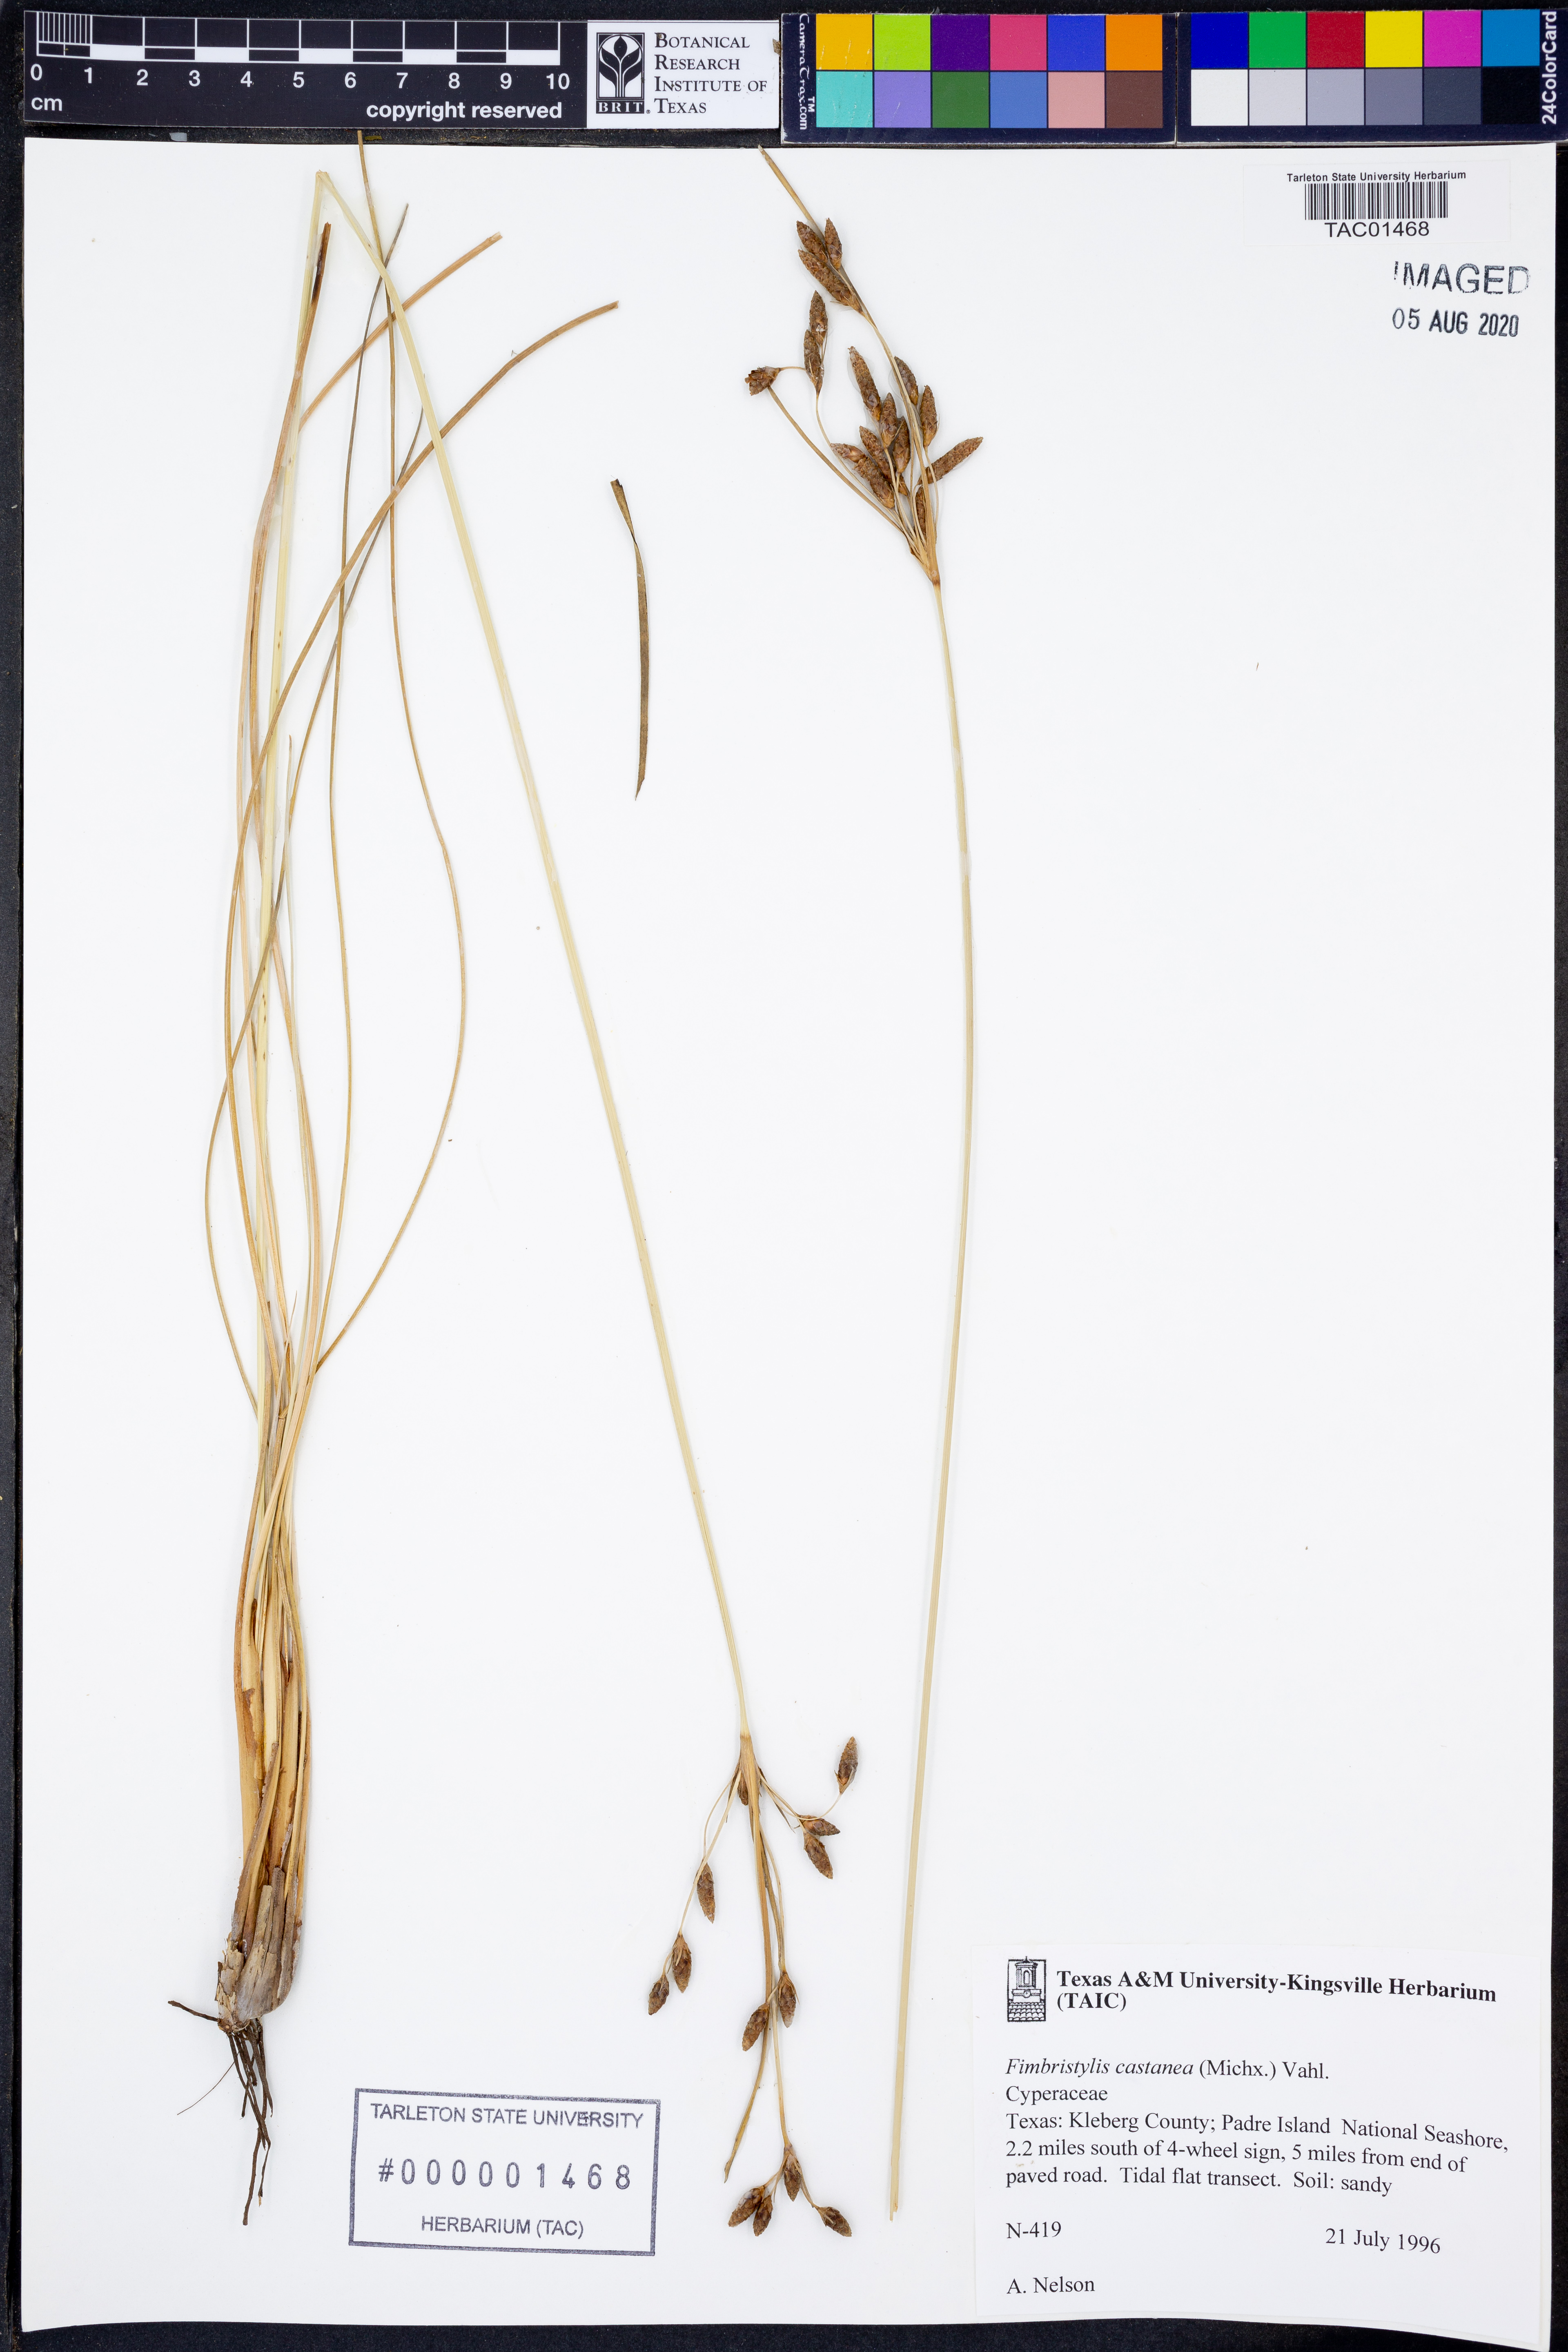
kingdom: Plantae
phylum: Tracheophyta
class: Liliopsida
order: Poales
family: Cyperaceae
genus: Fimbristylis
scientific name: Fimbristylis spadicea
